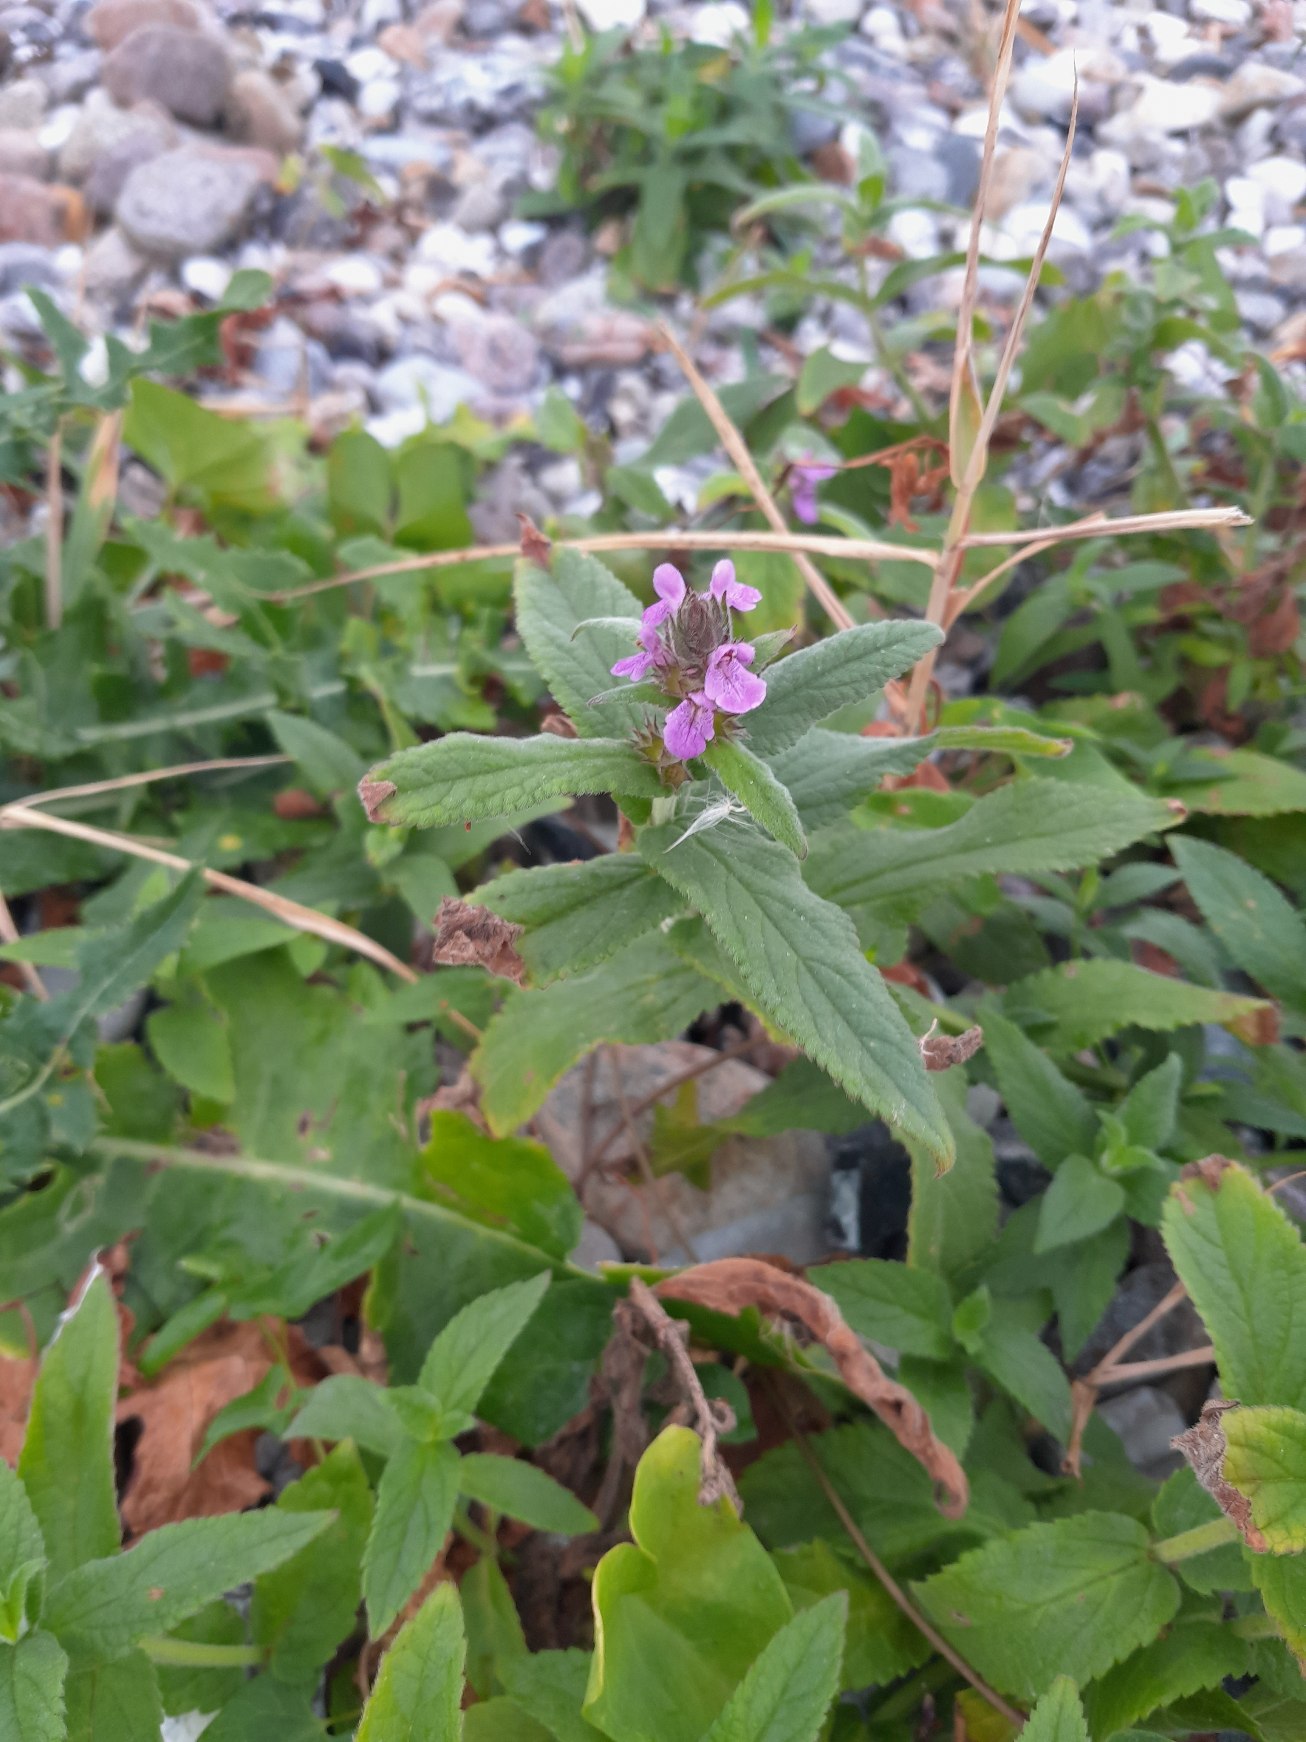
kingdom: Plantae
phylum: Tracheophyta
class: Magnoliopsida
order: Lamiales
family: Lamiaceae
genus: Stachys
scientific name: Stachys palustris
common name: Kær-galtetand
